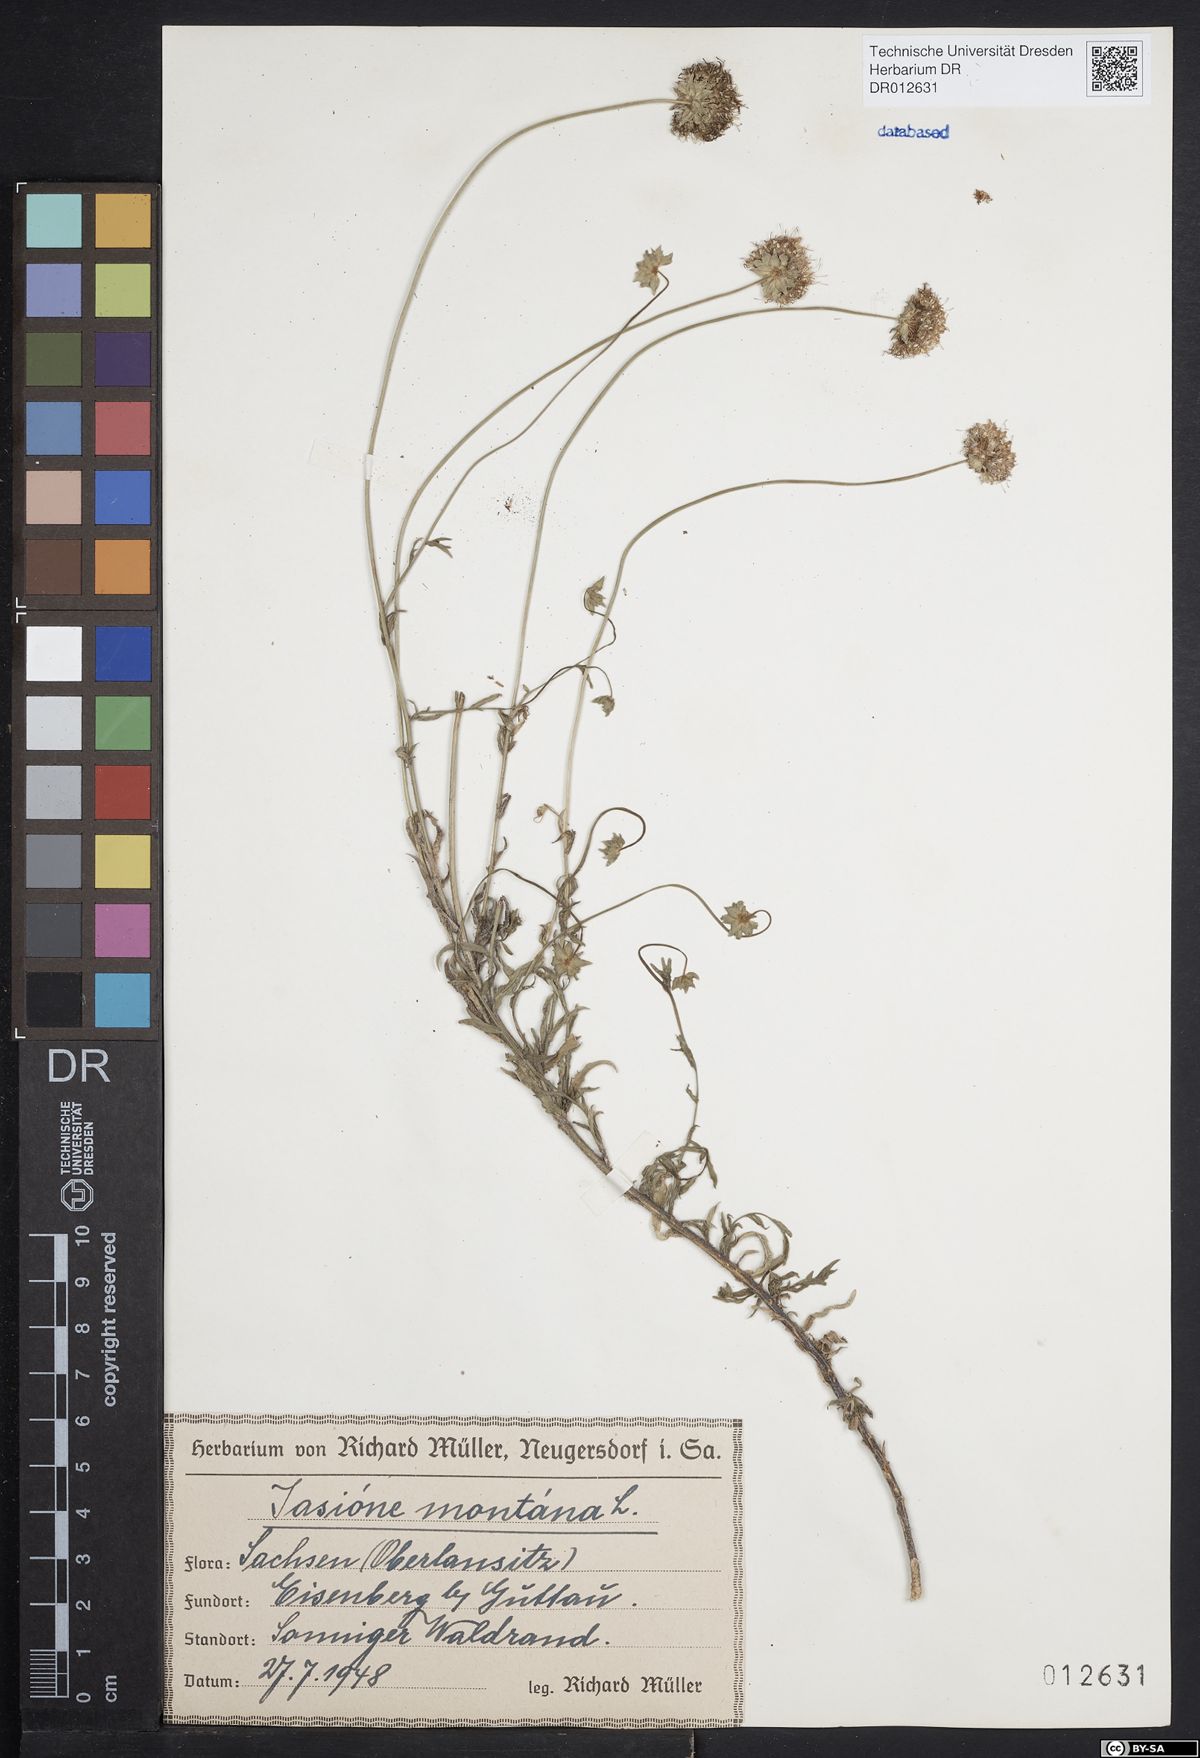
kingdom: Plantae
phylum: Tracheophyta
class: Magnoliopsida
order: Asterales
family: Campanulaceae
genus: Jasione
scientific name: Jasione montana
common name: Sheep's-bit
